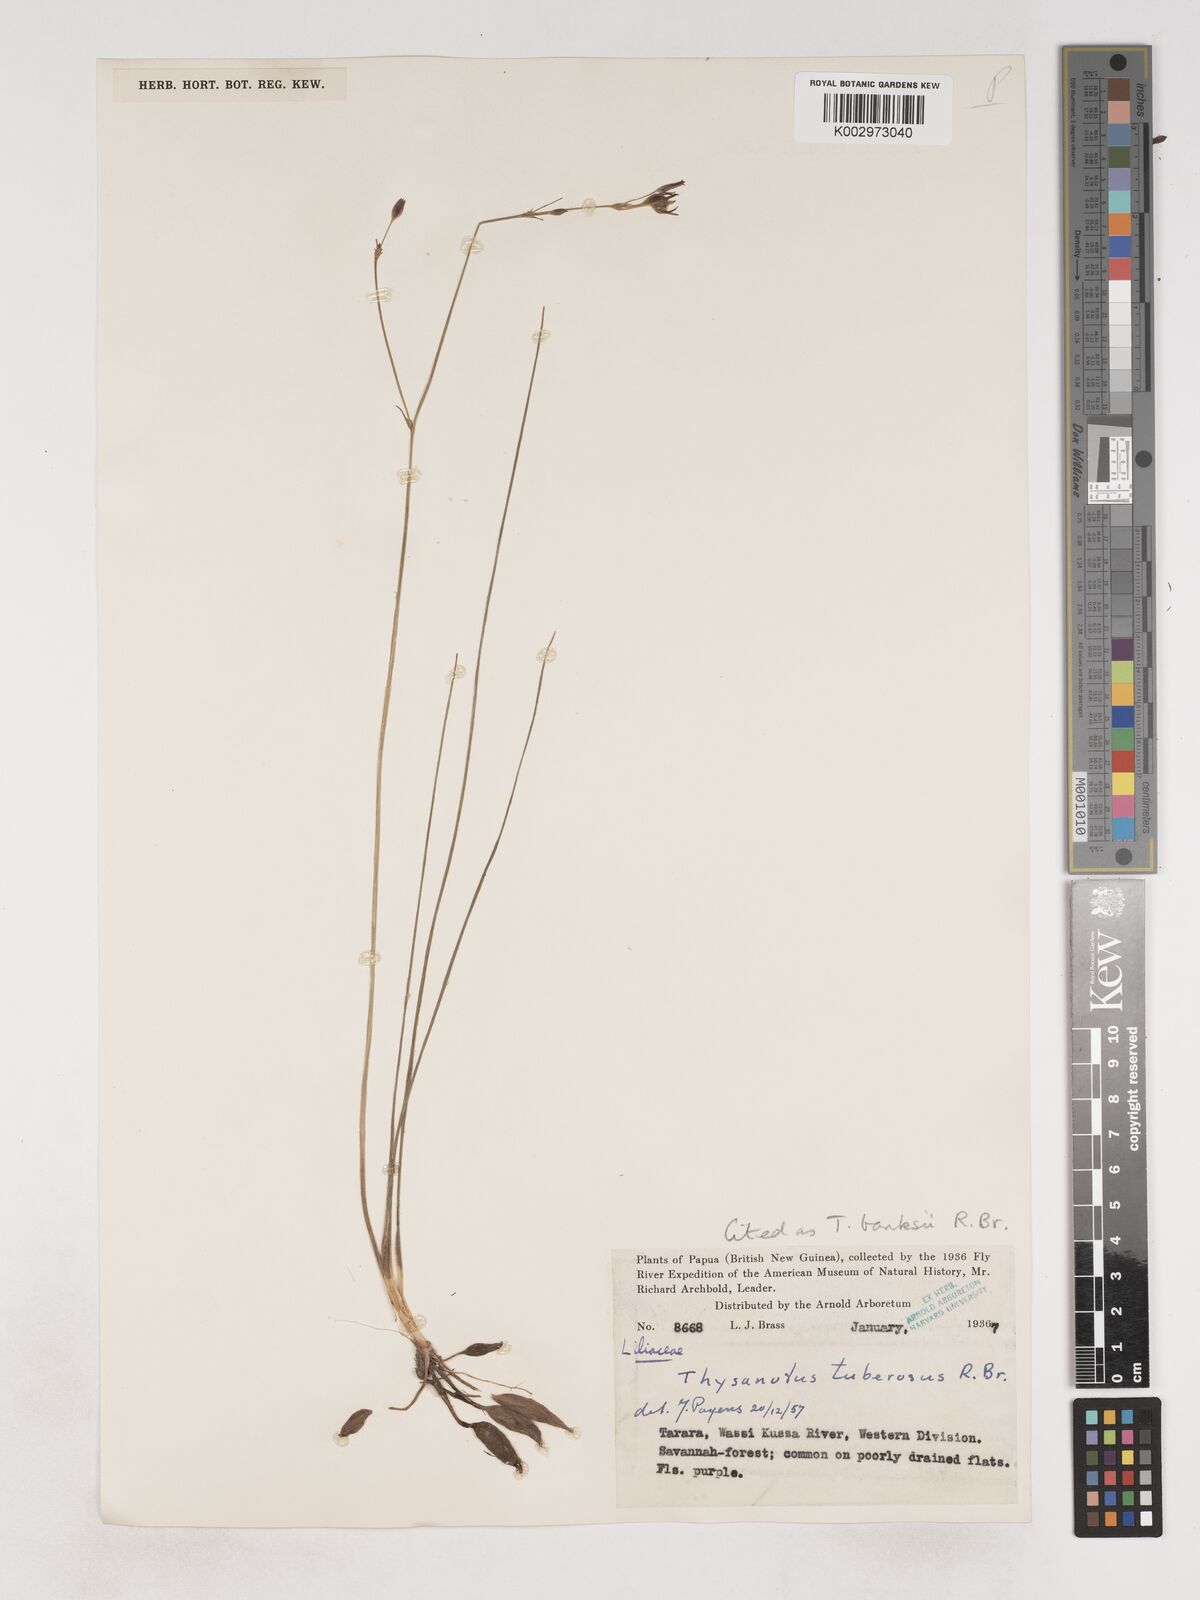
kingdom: Plantae
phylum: Tracheophyta
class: Liliopsida
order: Asparagales
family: Asparagaceae
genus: Thysanotus
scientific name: Thysanotus banksii
